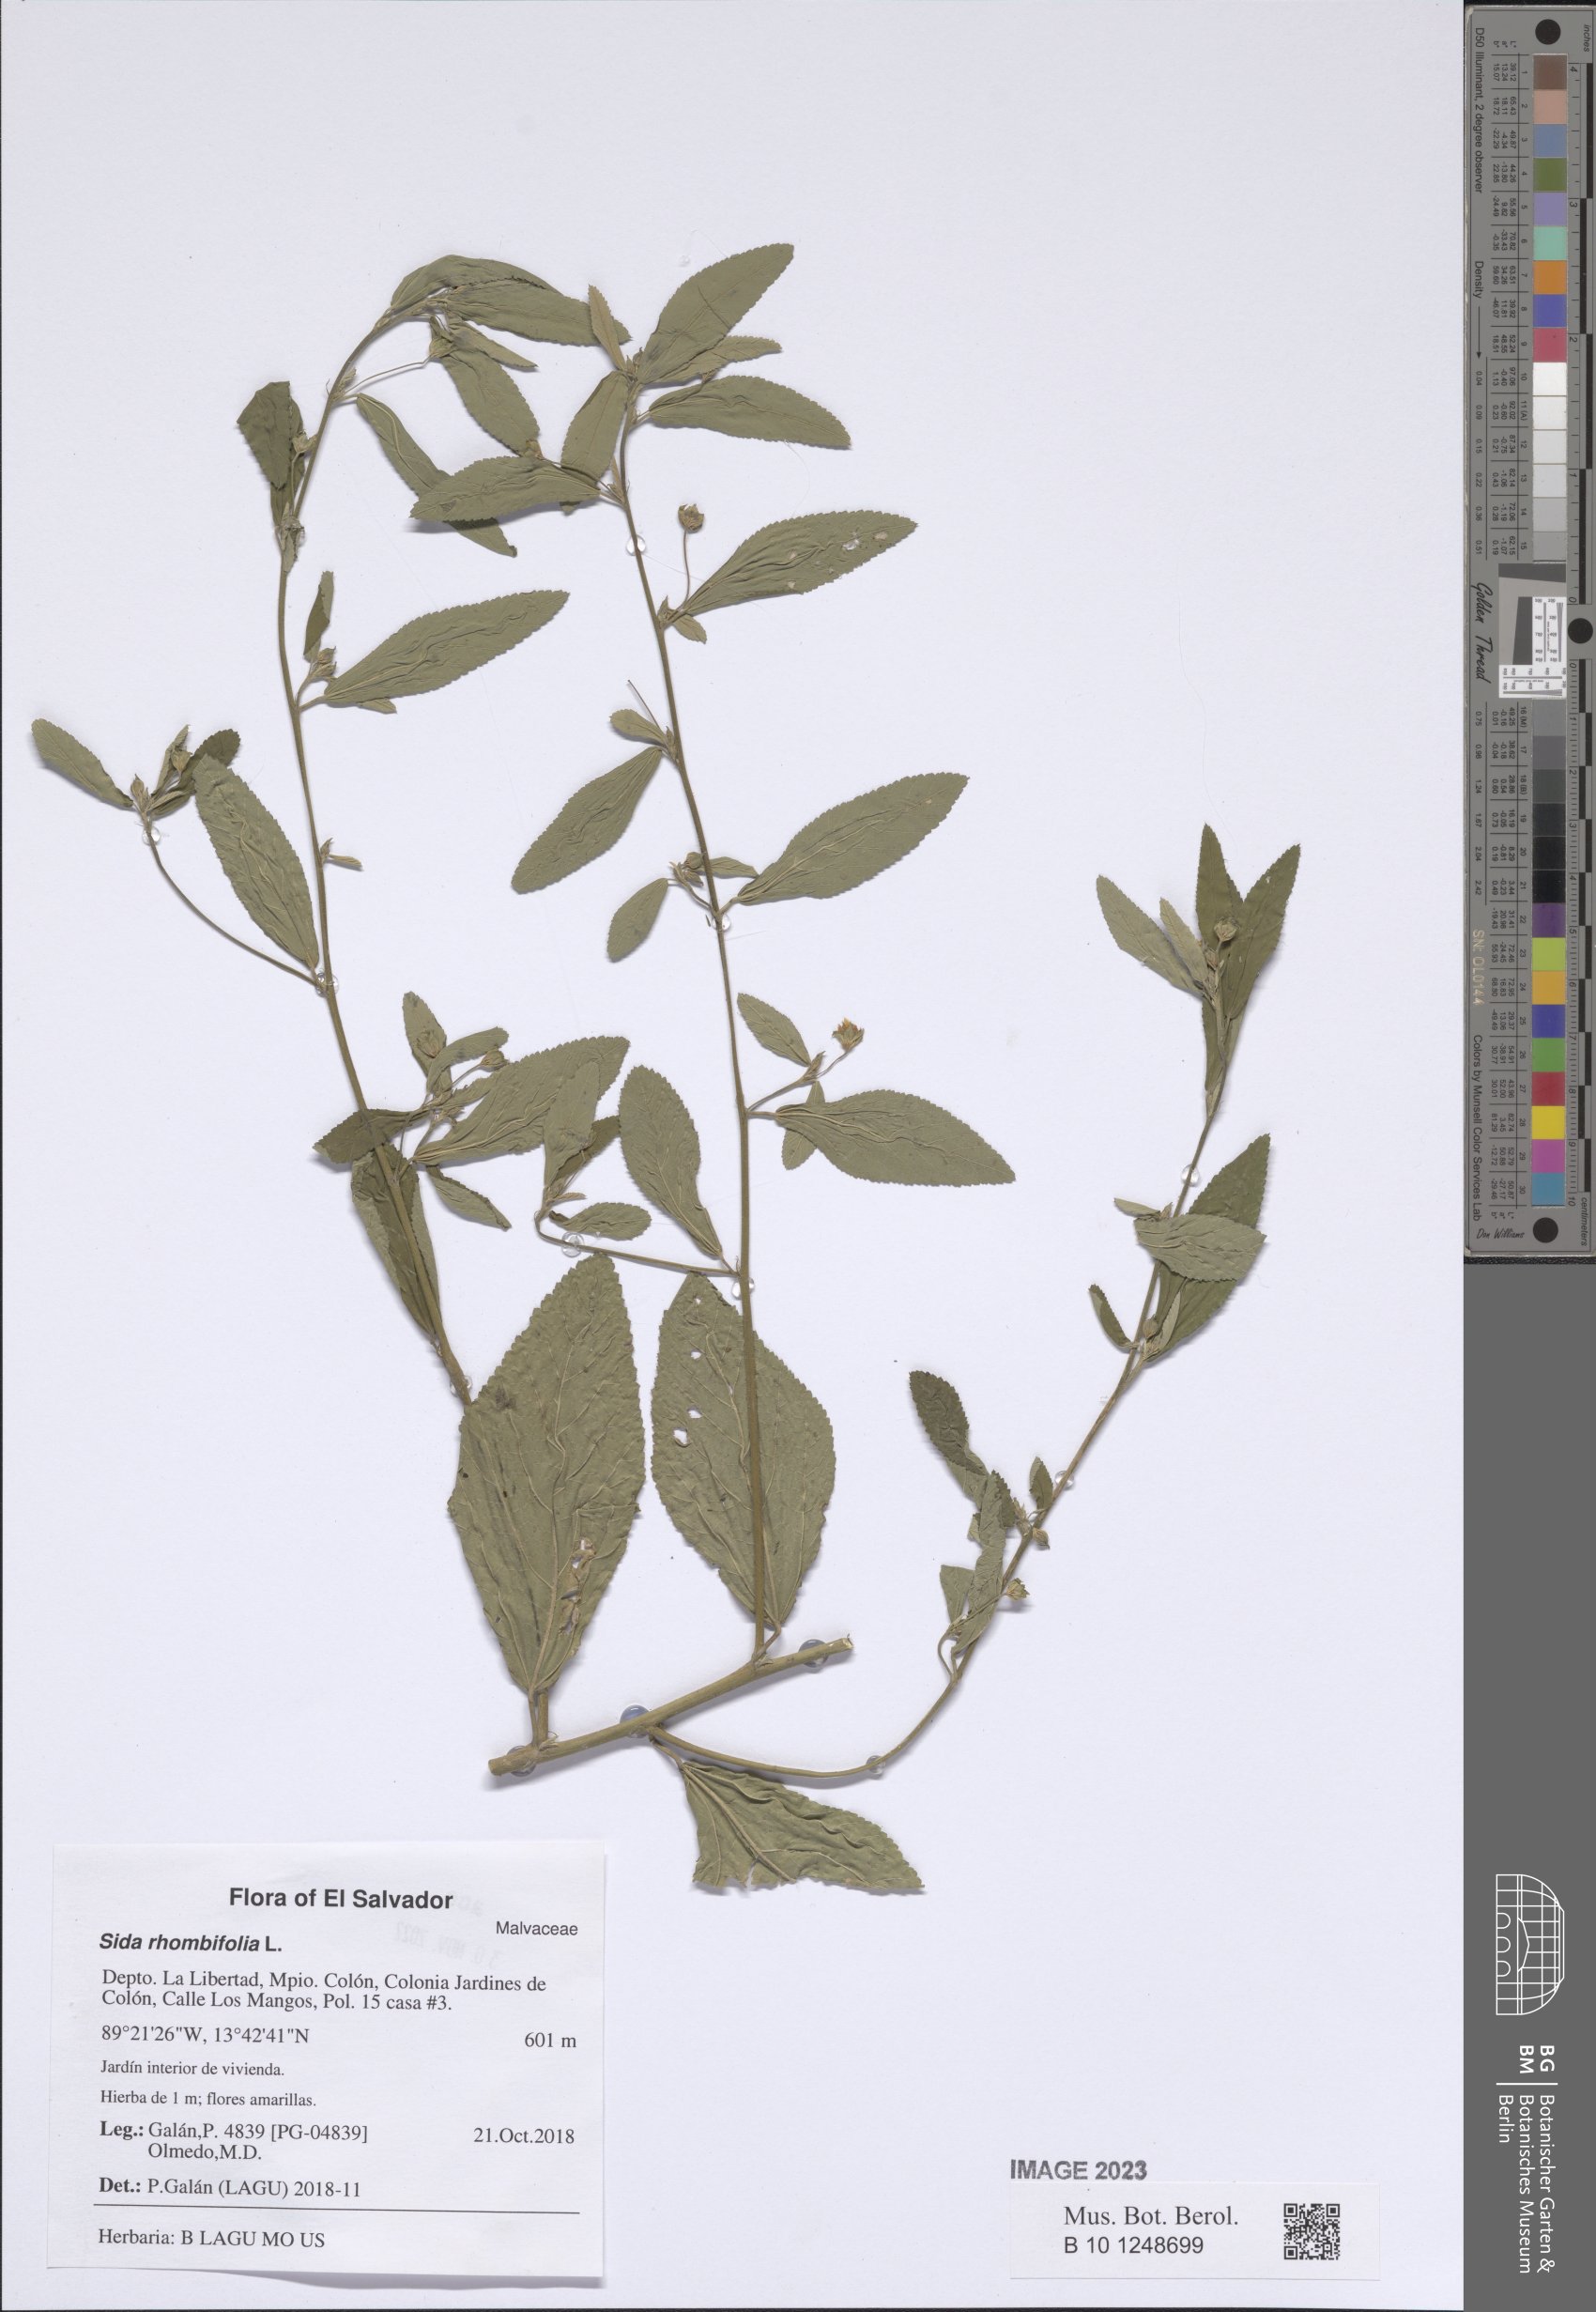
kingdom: Plantae
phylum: Tracheophyta
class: Magnoliopsida
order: Malvales
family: Malvaceae
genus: Sida
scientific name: Sida rhombifolia
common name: Queensland-hemp
